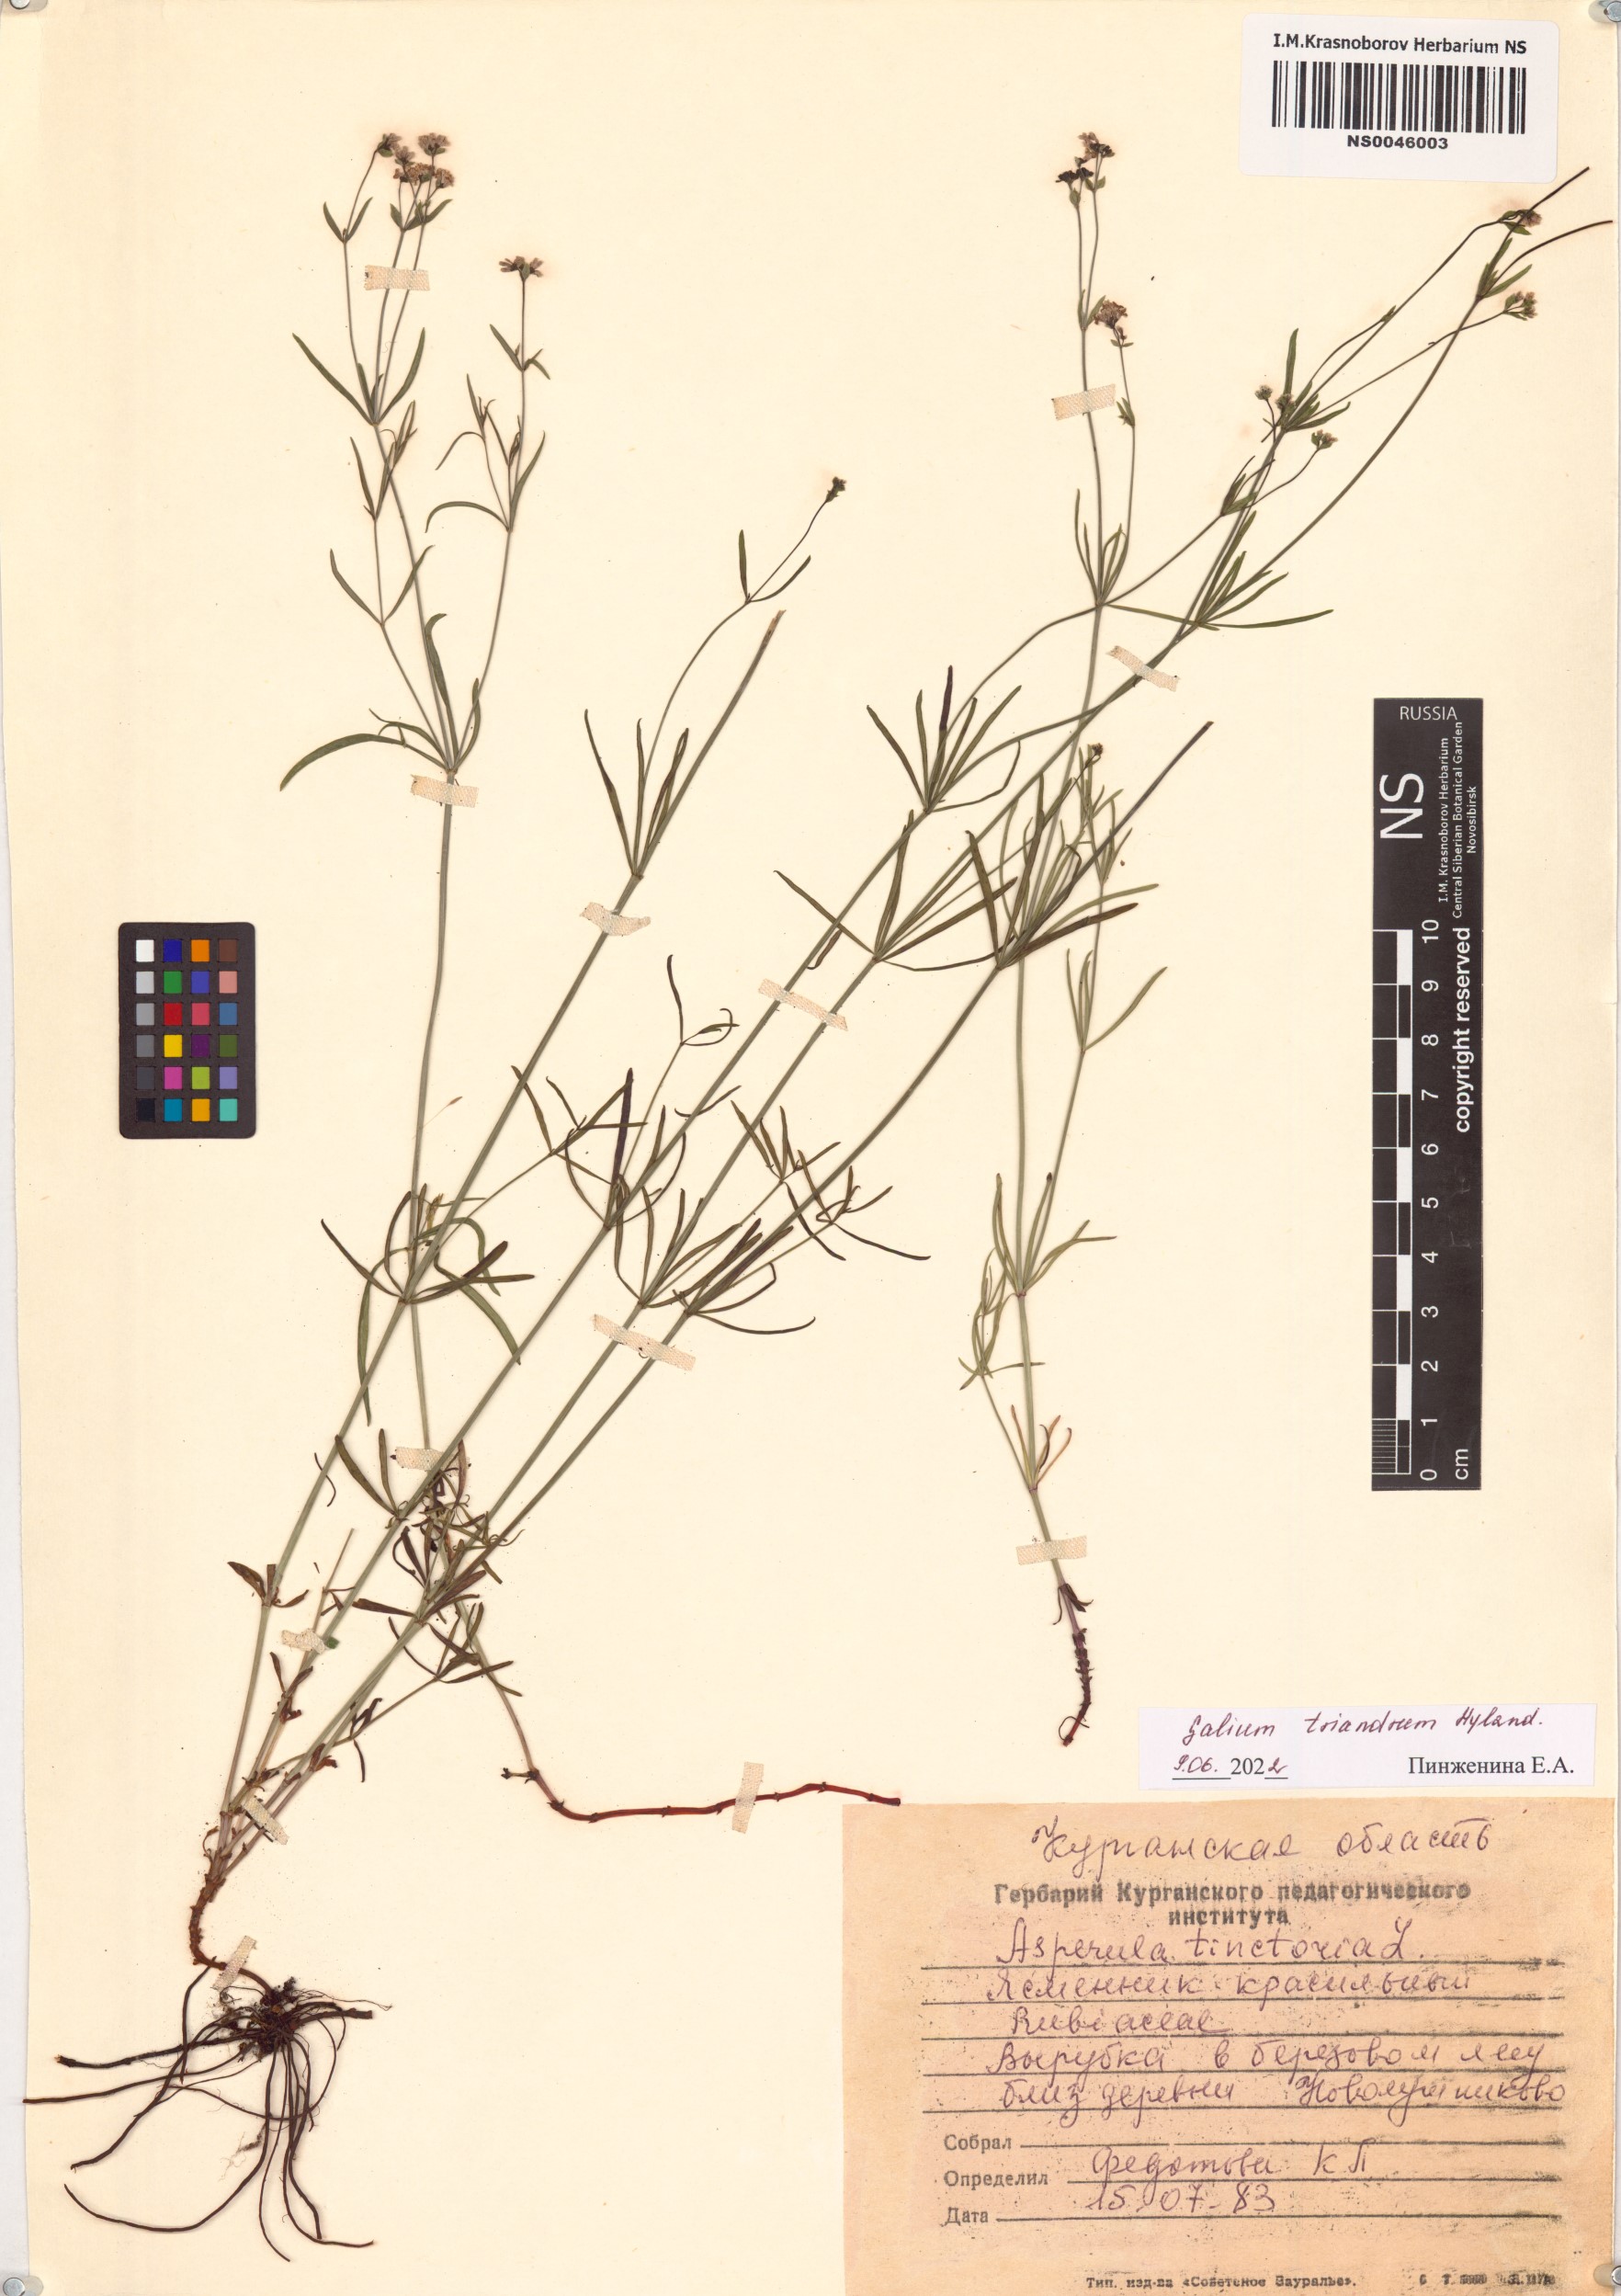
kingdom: Plantae
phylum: Tracheophyta
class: Magnoliopsida
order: Gentianales
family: Rubiaceae
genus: Asperula
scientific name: Asperula tinctoria
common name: Dyer's woodruff
